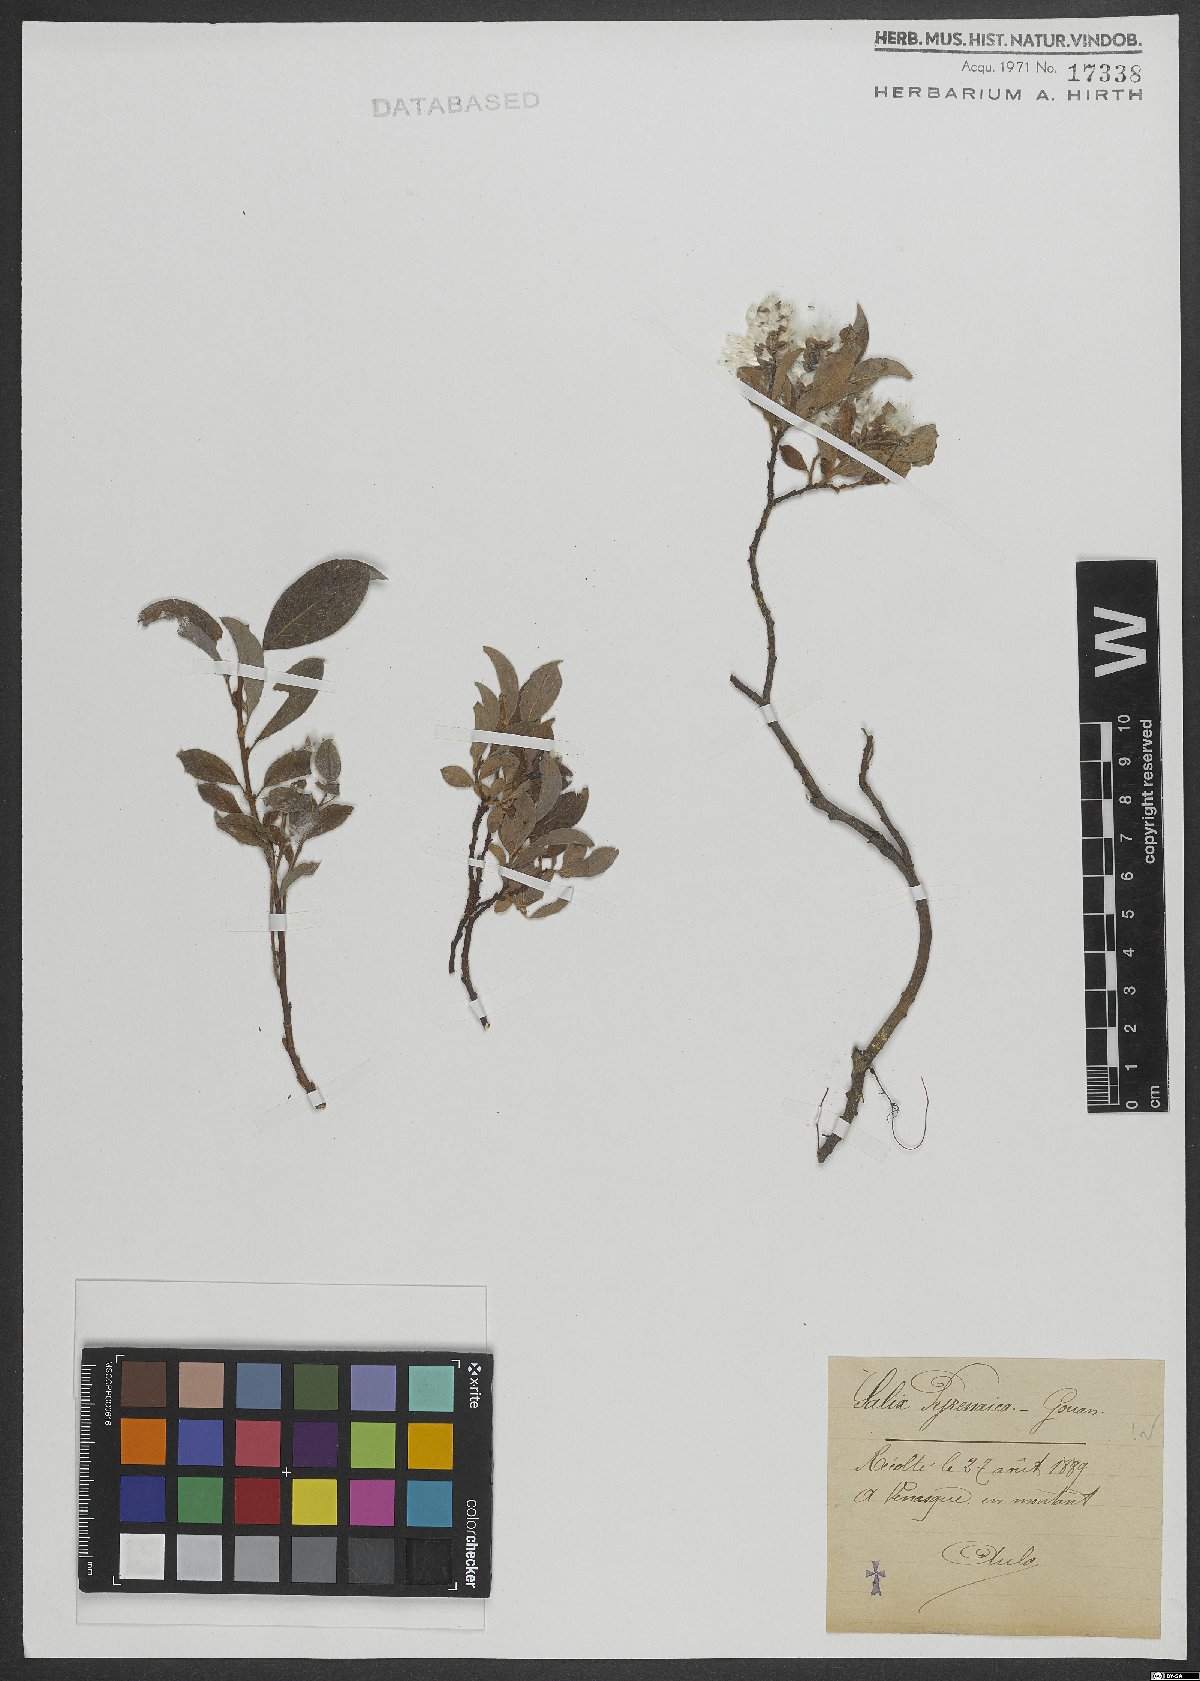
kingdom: Plantae
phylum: Tracheophyta
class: Magnoliopsida
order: Malpighiales
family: Salicaceae
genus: Salix
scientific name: Salix pyrenaica
